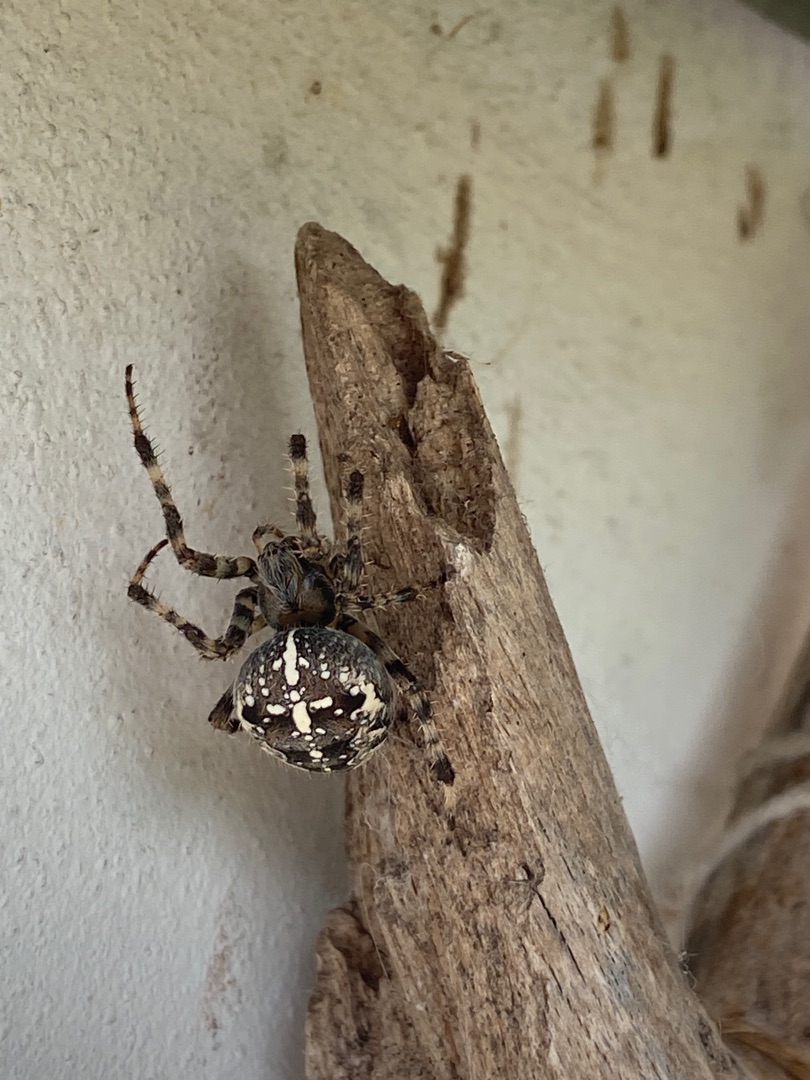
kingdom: Animalia
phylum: Arthropoda
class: Arachnida
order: Araneae
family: Araneidae
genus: Araneus
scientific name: Araneus diadematus
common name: Korsedderkop
